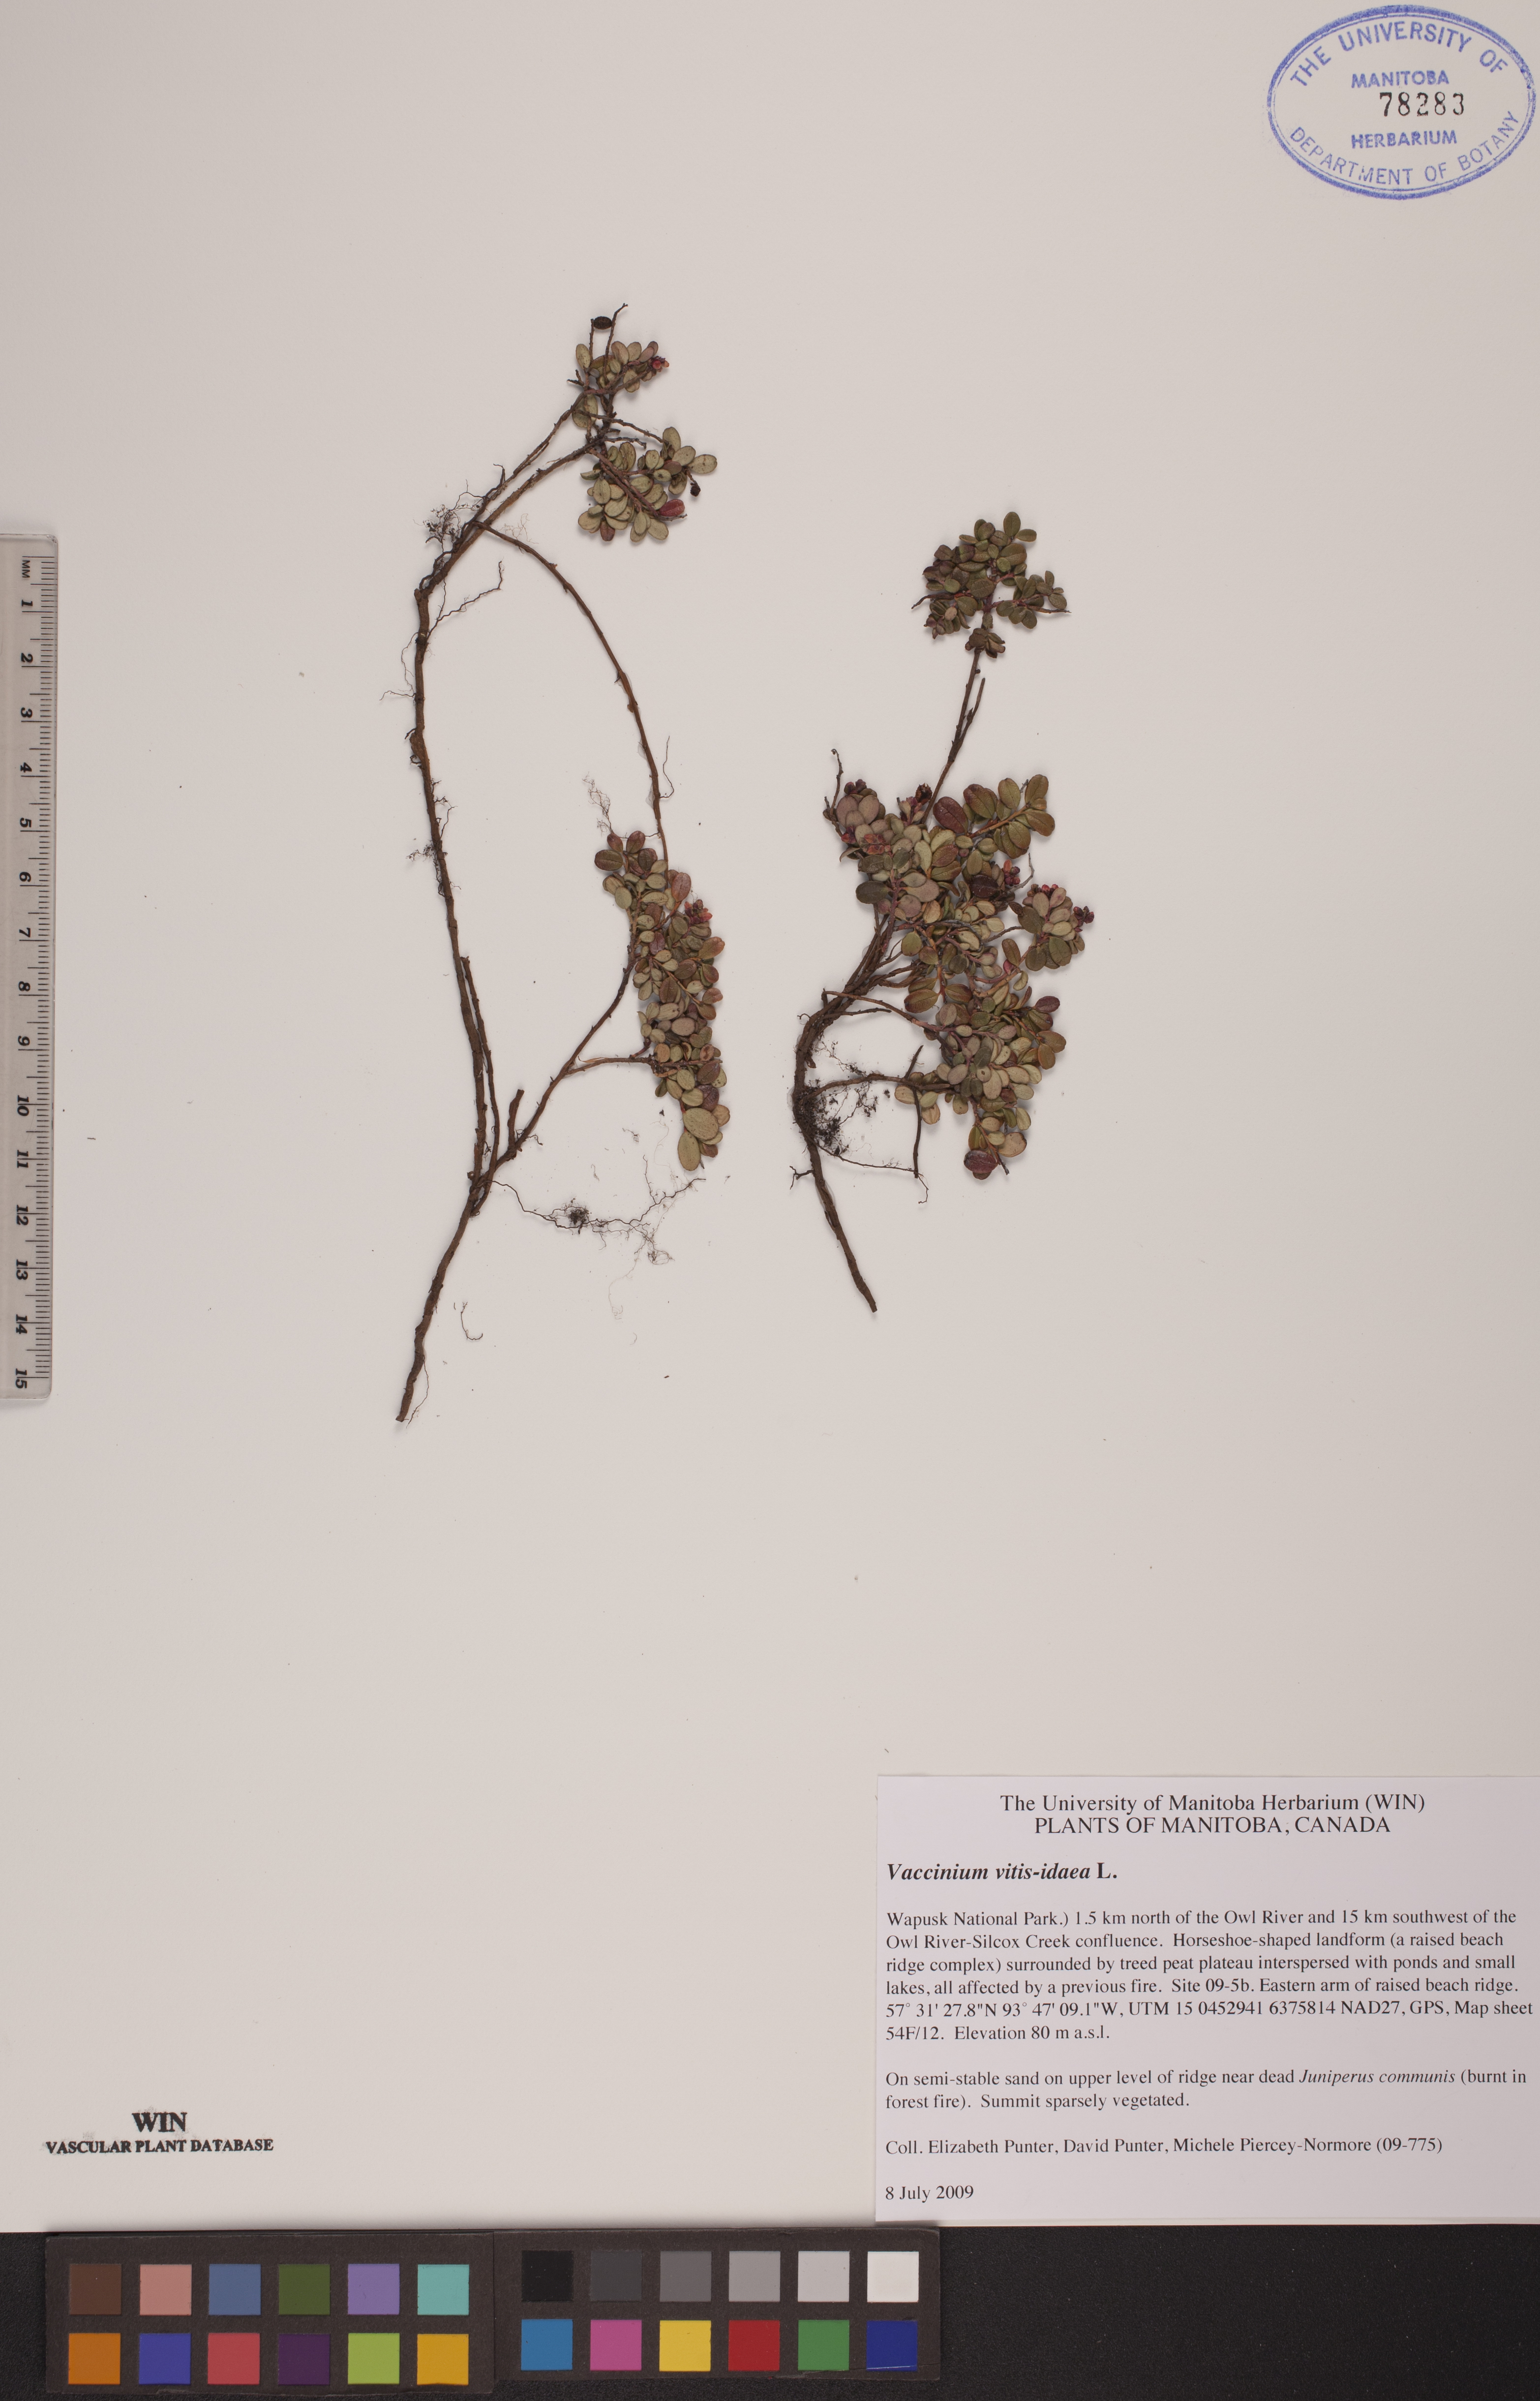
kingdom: Plantae
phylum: Tracheophyta
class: Magnoliopsida
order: Ericales
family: Ericaceae
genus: Vaccinium
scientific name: Vaccinium vitis-idaea
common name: Cowberry
